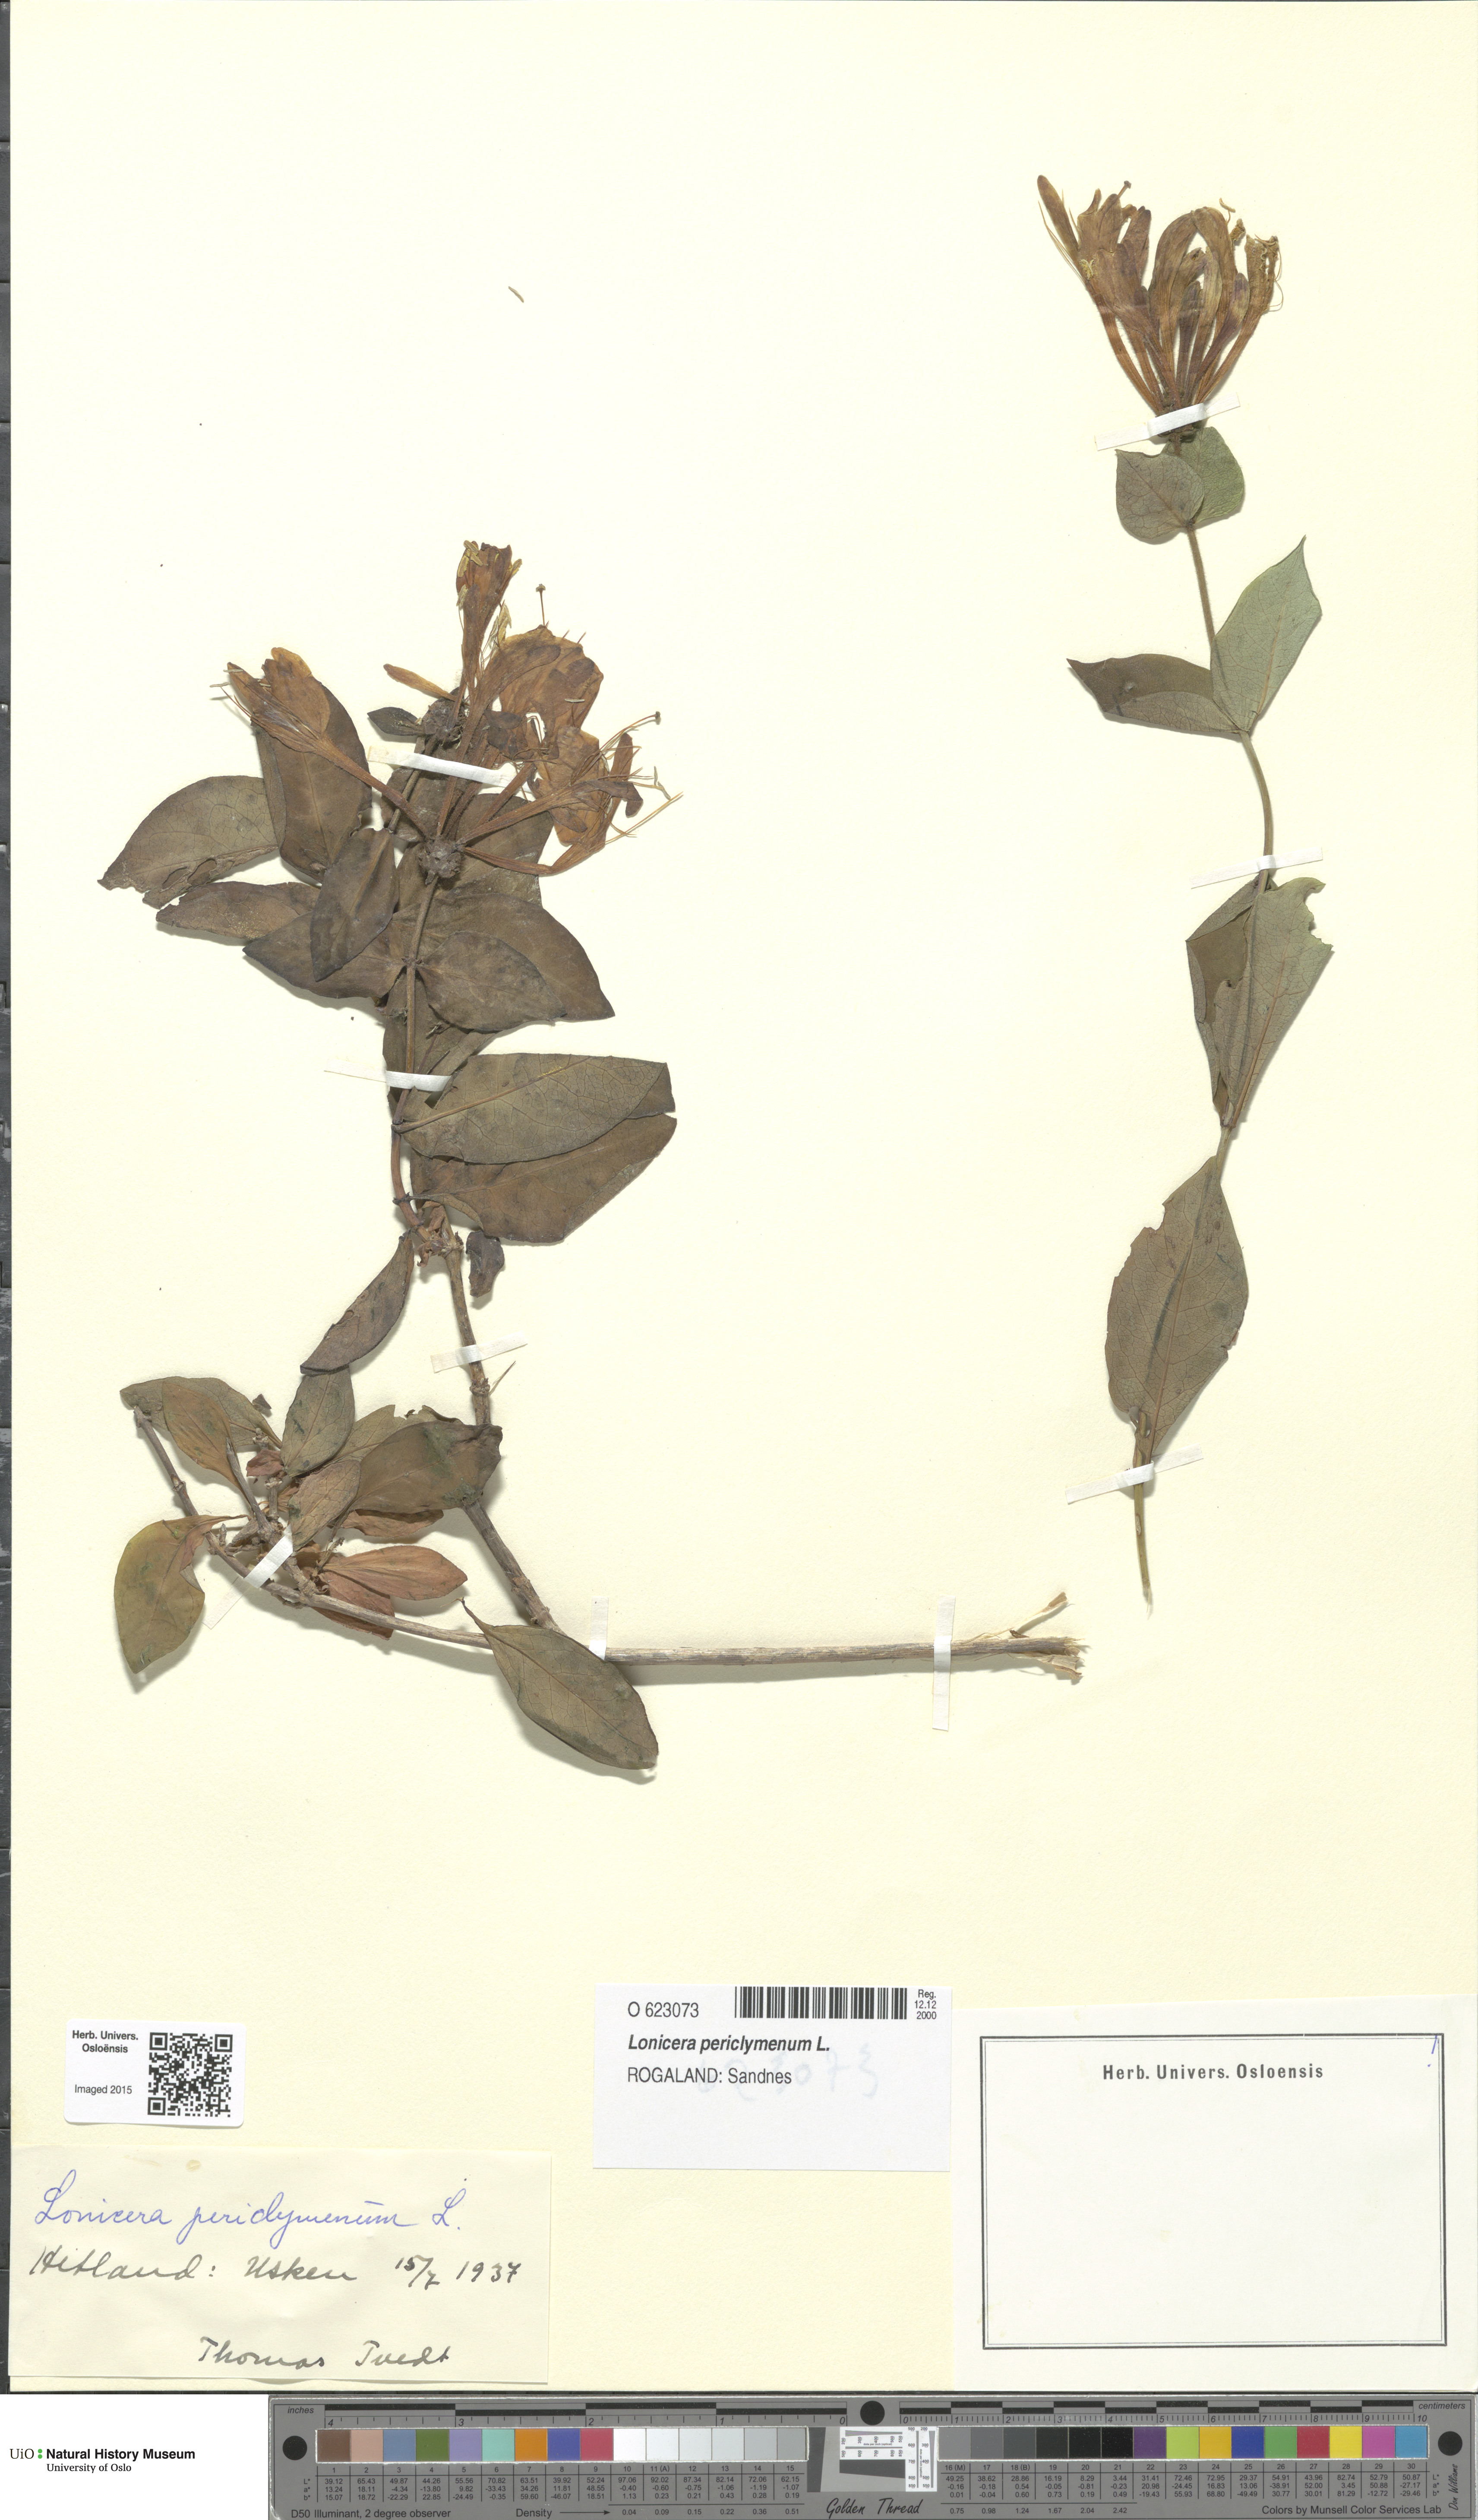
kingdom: Plantae
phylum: Tracheophyta
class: Magnoliopsida
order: Dipsacales
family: Caprifoliaceae
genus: Lonicera
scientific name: Lonicera periclymenum
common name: European honeysuckle
